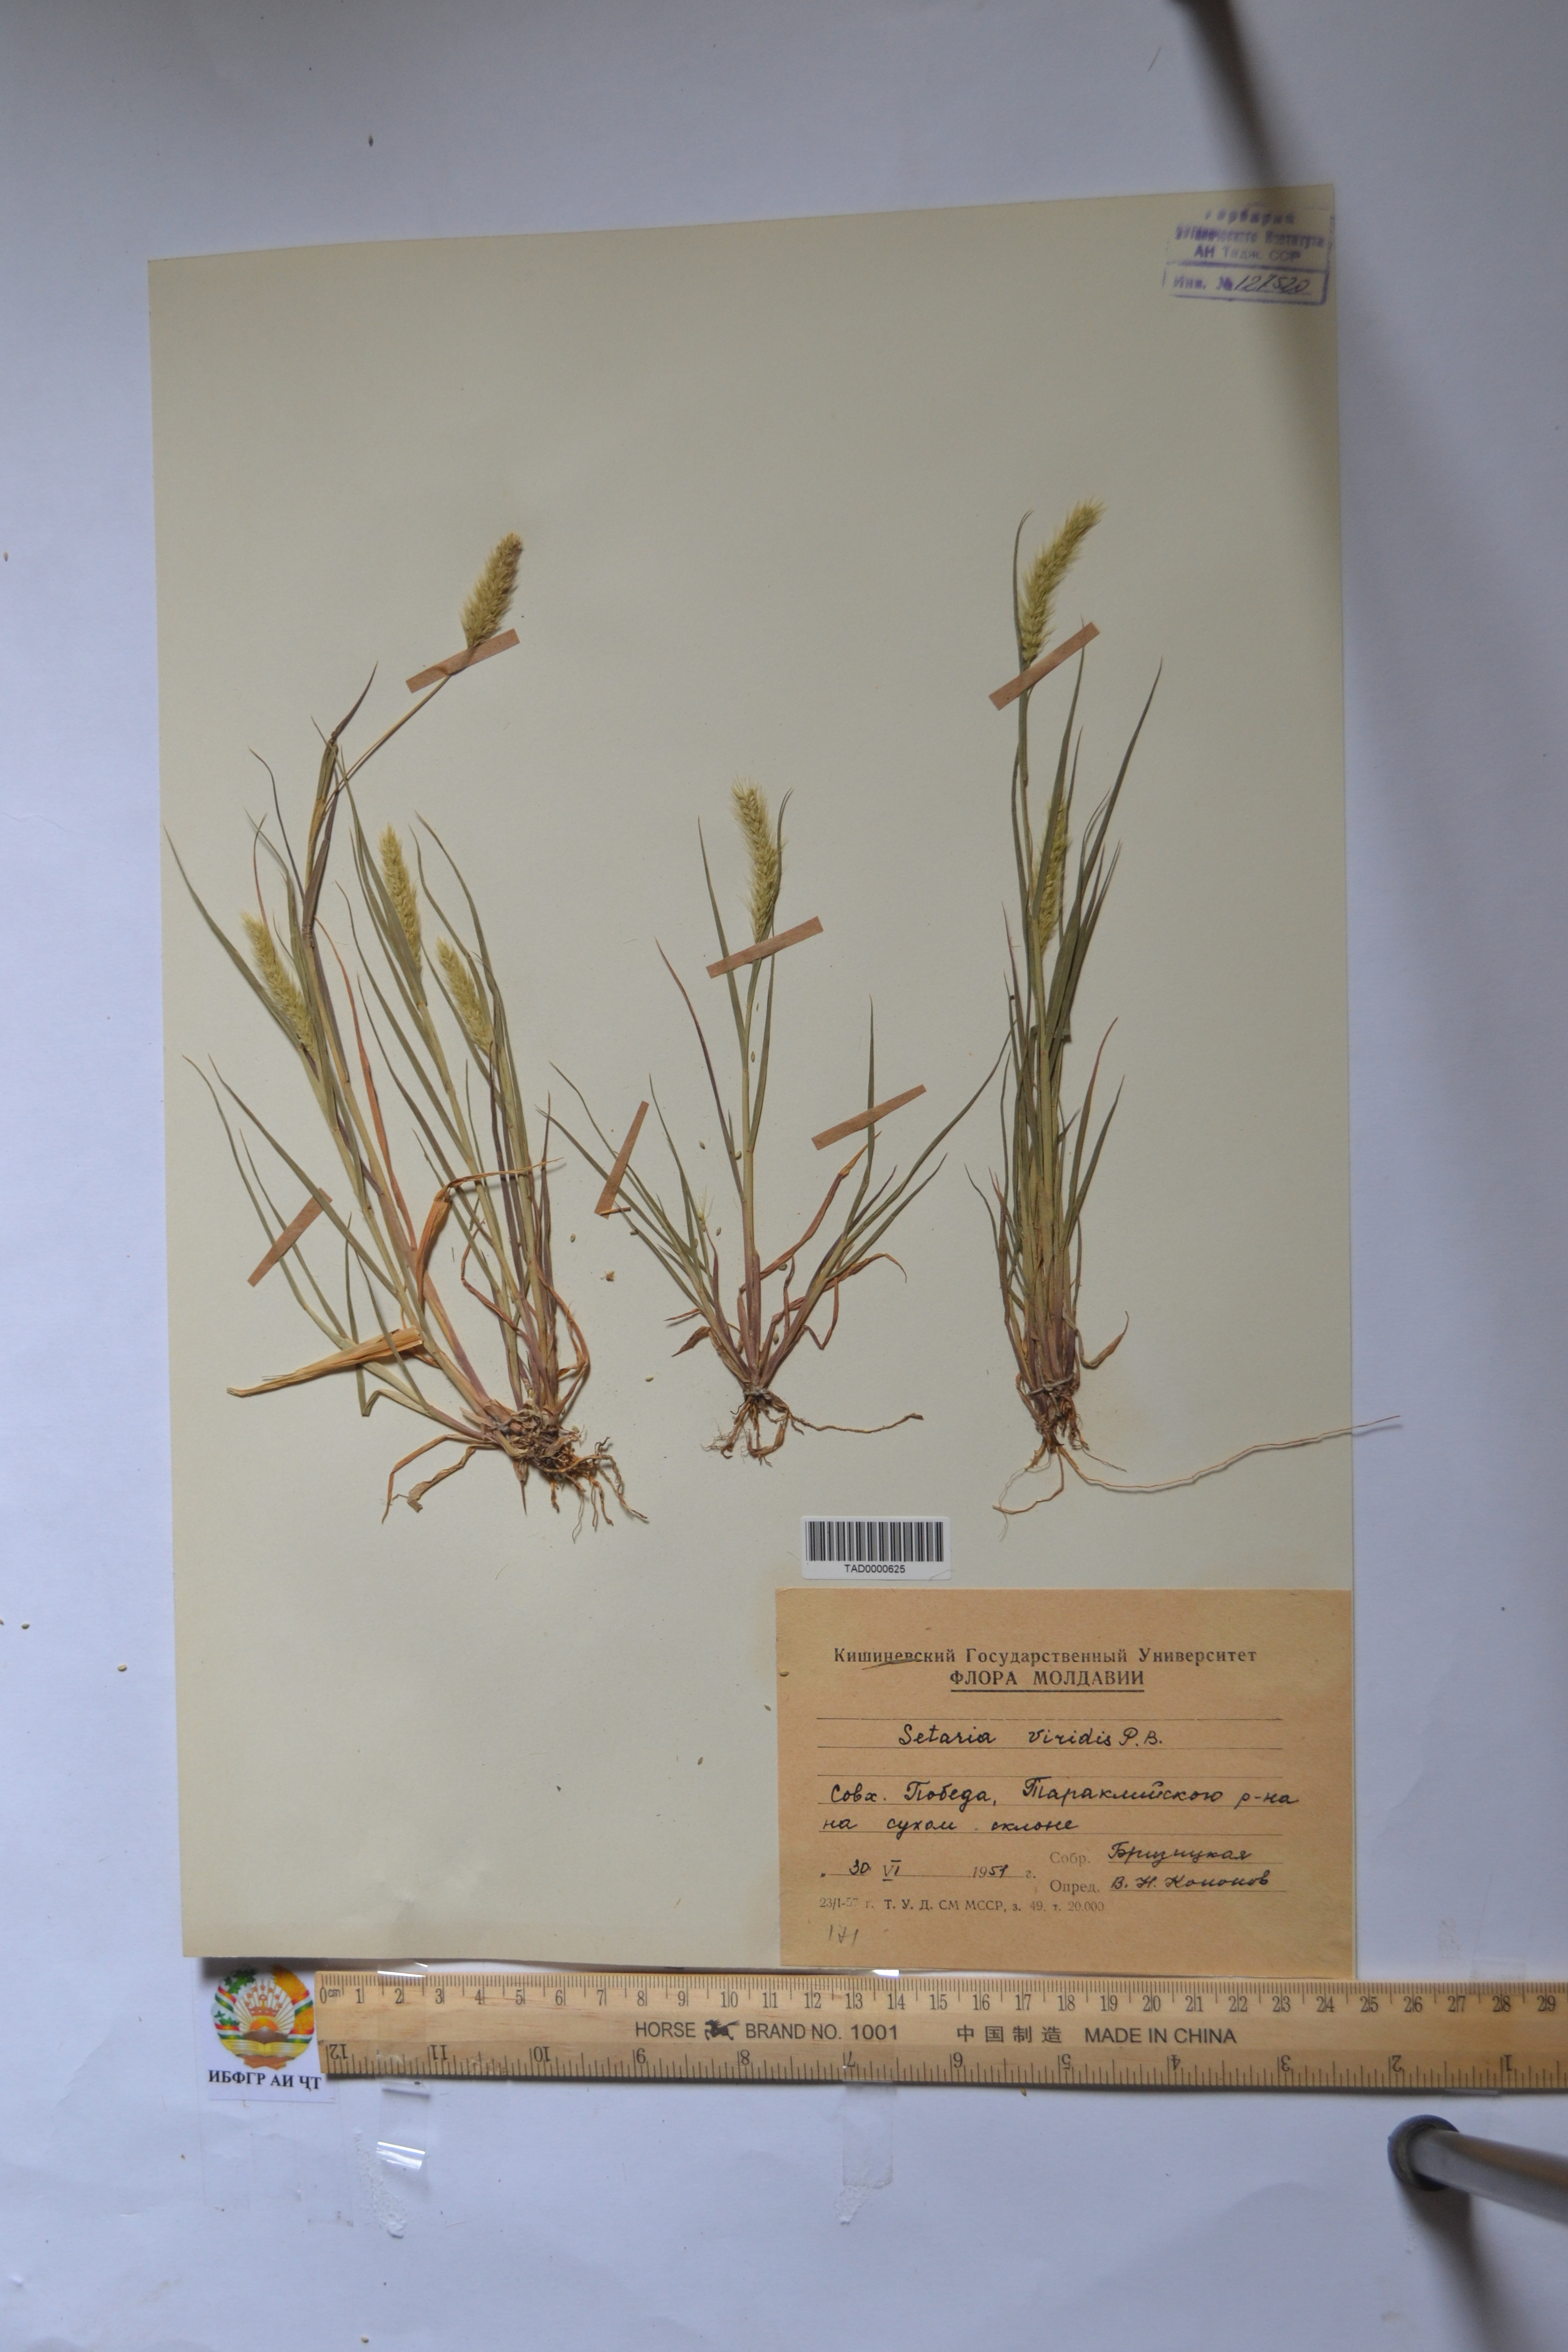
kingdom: Plantae
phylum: Tracheophyta
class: Liliopsida
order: Poales
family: Poaceae
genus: Setaria
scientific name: Setaria viridis
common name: Green bristlegrass
